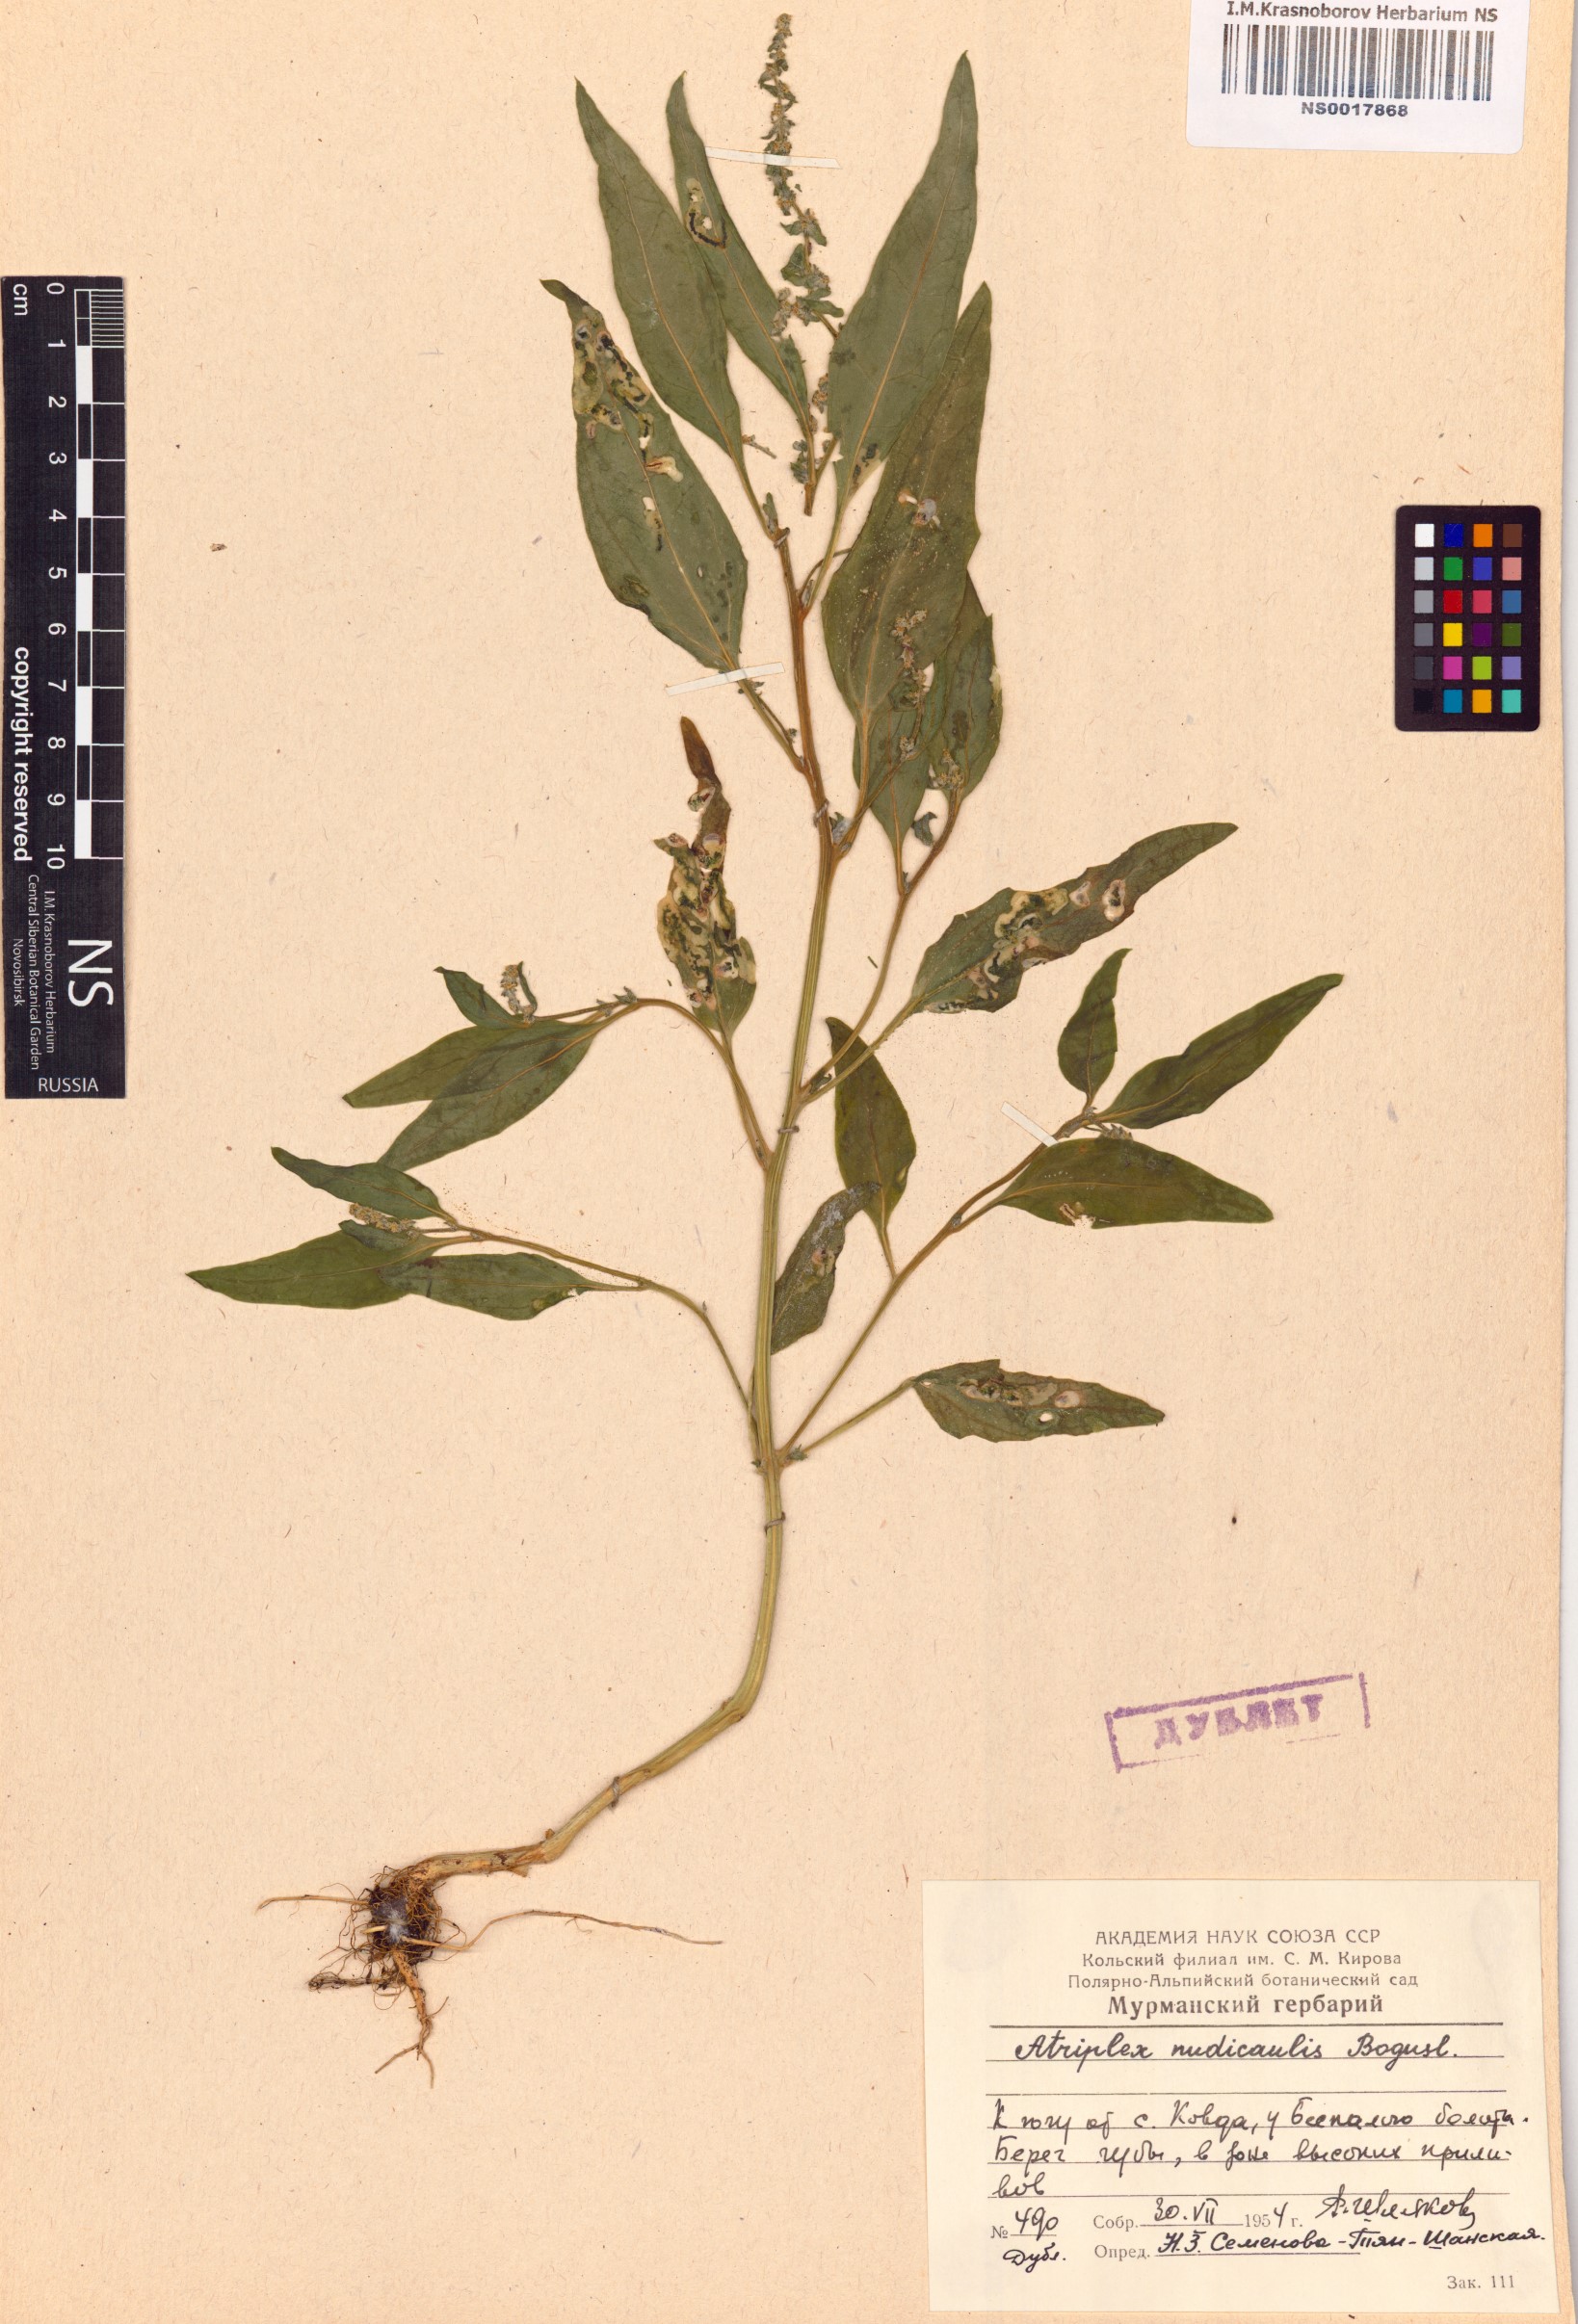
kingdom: Plantae
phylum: Tracheophyta
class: Magnoliopsida
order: Caryophyllales
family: Amaranthaceae
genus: Atriplex
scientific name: Atriplex nudicaulis
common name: Baltic orache
